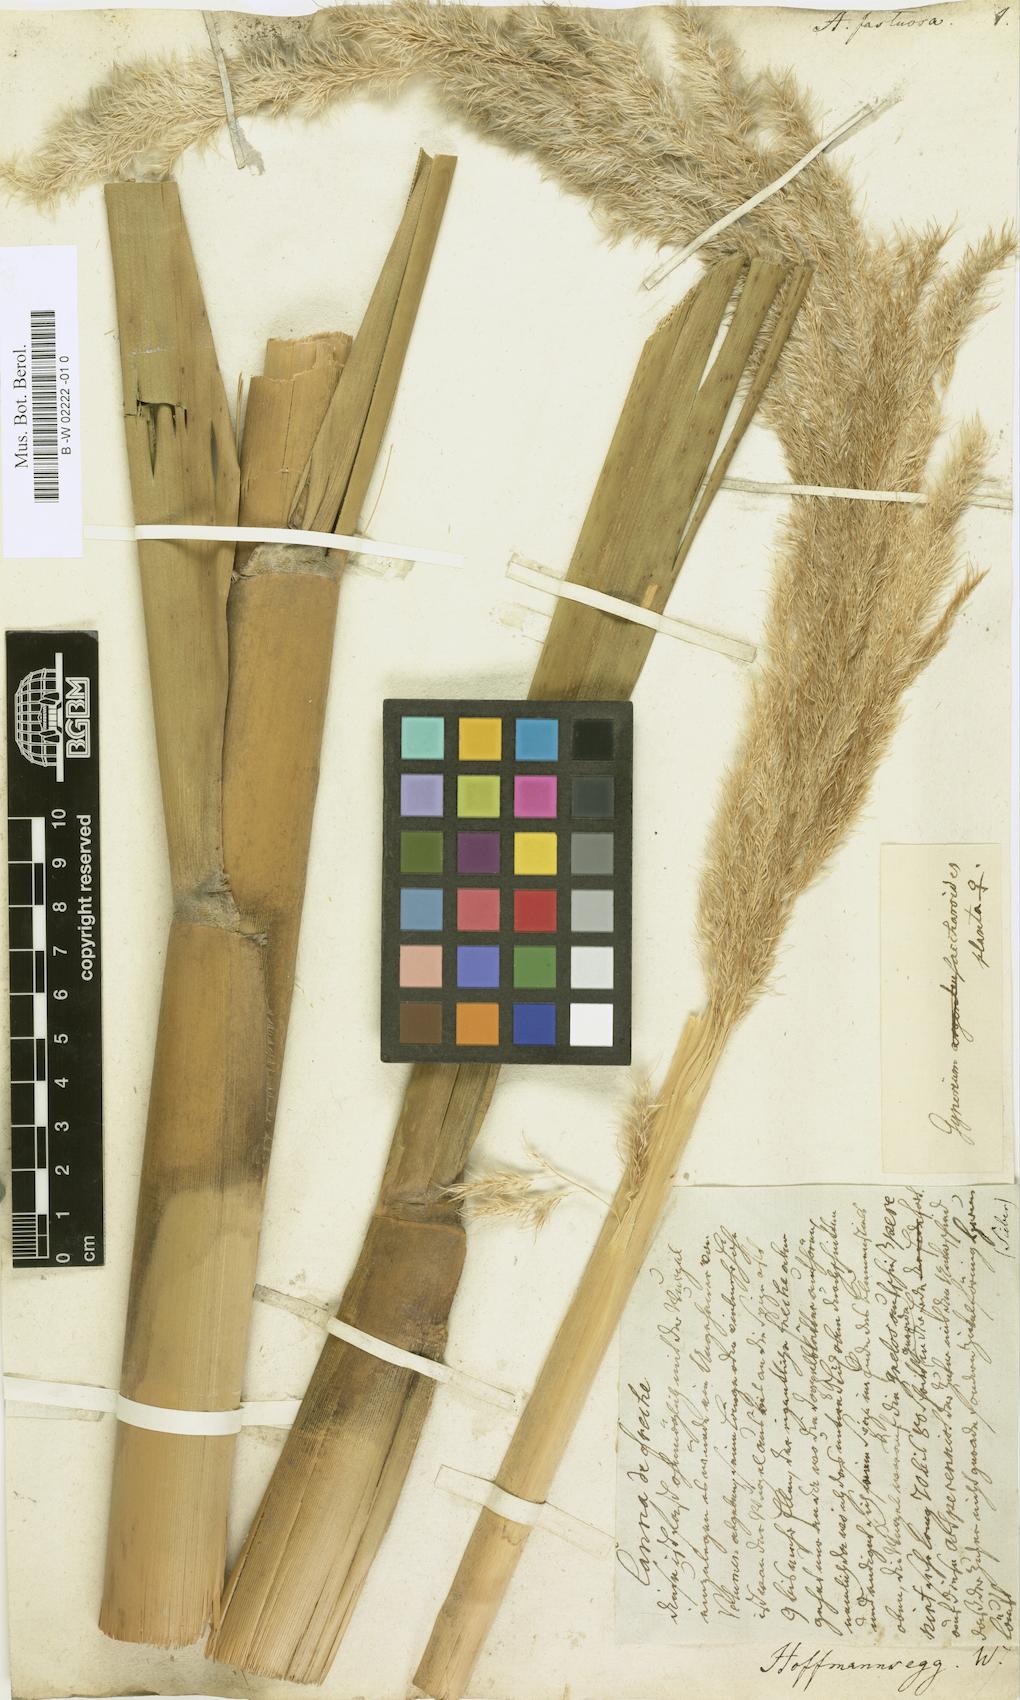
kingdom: Plantae
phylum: Tracheophyta
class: Liliopsida
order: Poales
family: Poaceae
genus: Gynerium
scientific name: Gynerium sagittatum
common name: Wild cane
